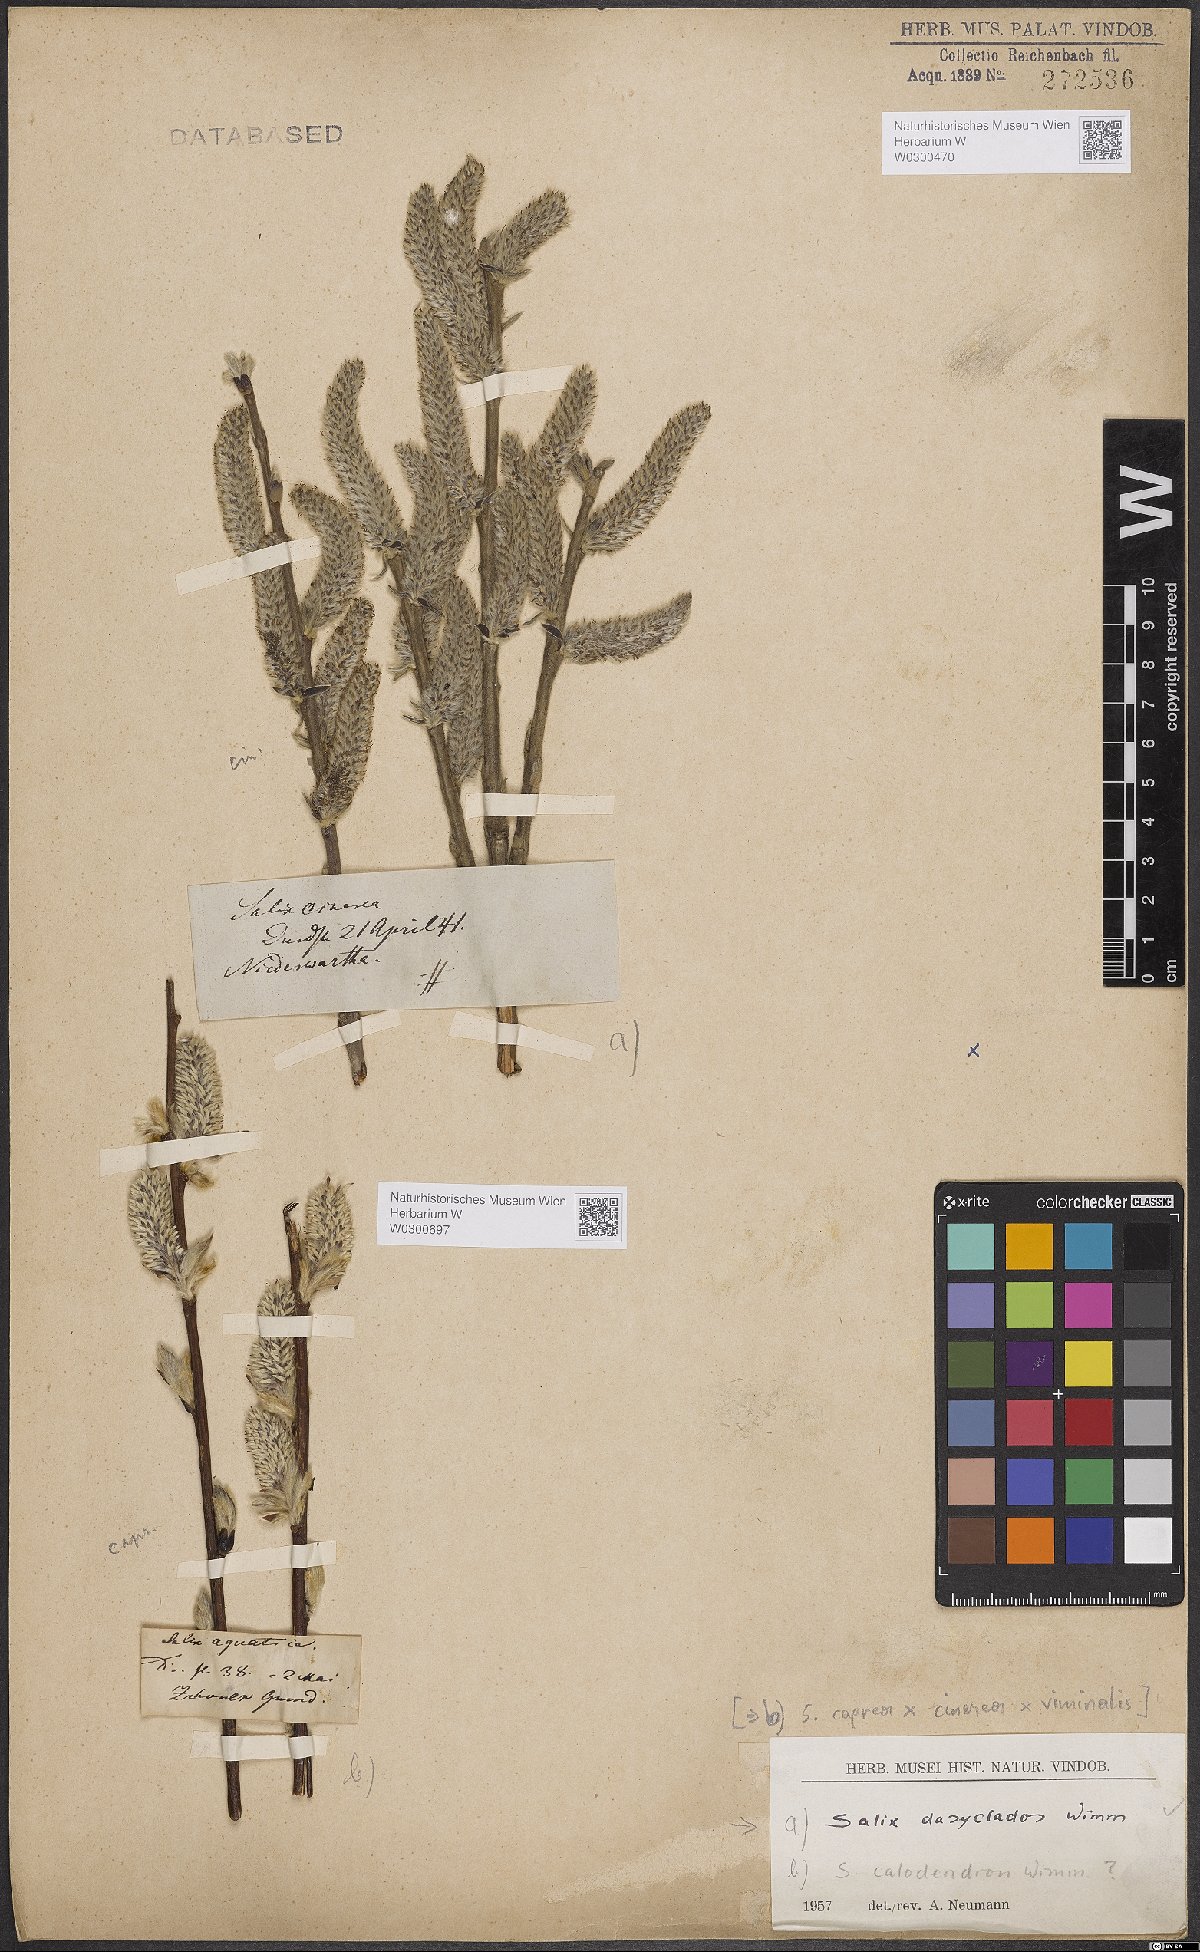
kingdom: Plantae
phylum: Tracheophyta
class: Magnoliopsida
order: Malpighiales
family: Salicaceae
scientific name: Salicaceae
